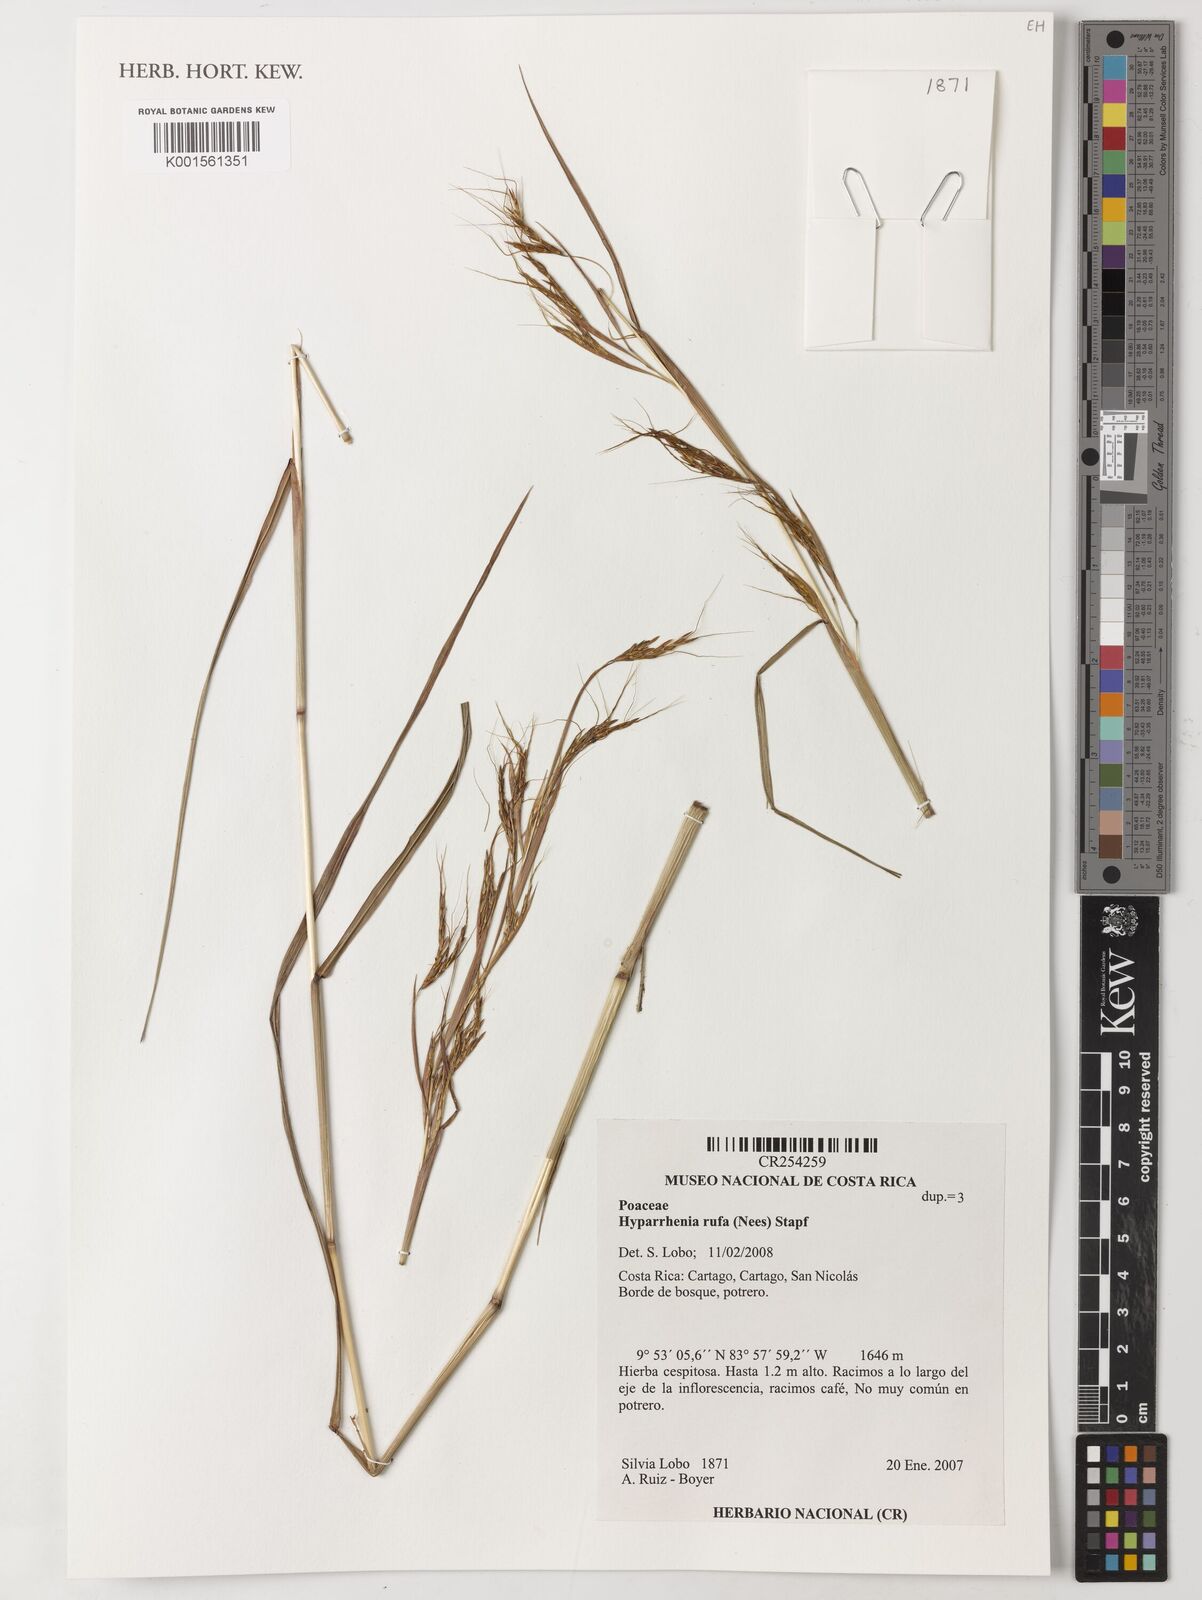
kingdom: Plantae
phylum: Tracheophyta
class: Liliopsida
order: Poales
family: Poaceae
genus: Hyparrhenia
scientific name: Hyparrhenia rufa
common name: Jaraguagrass
